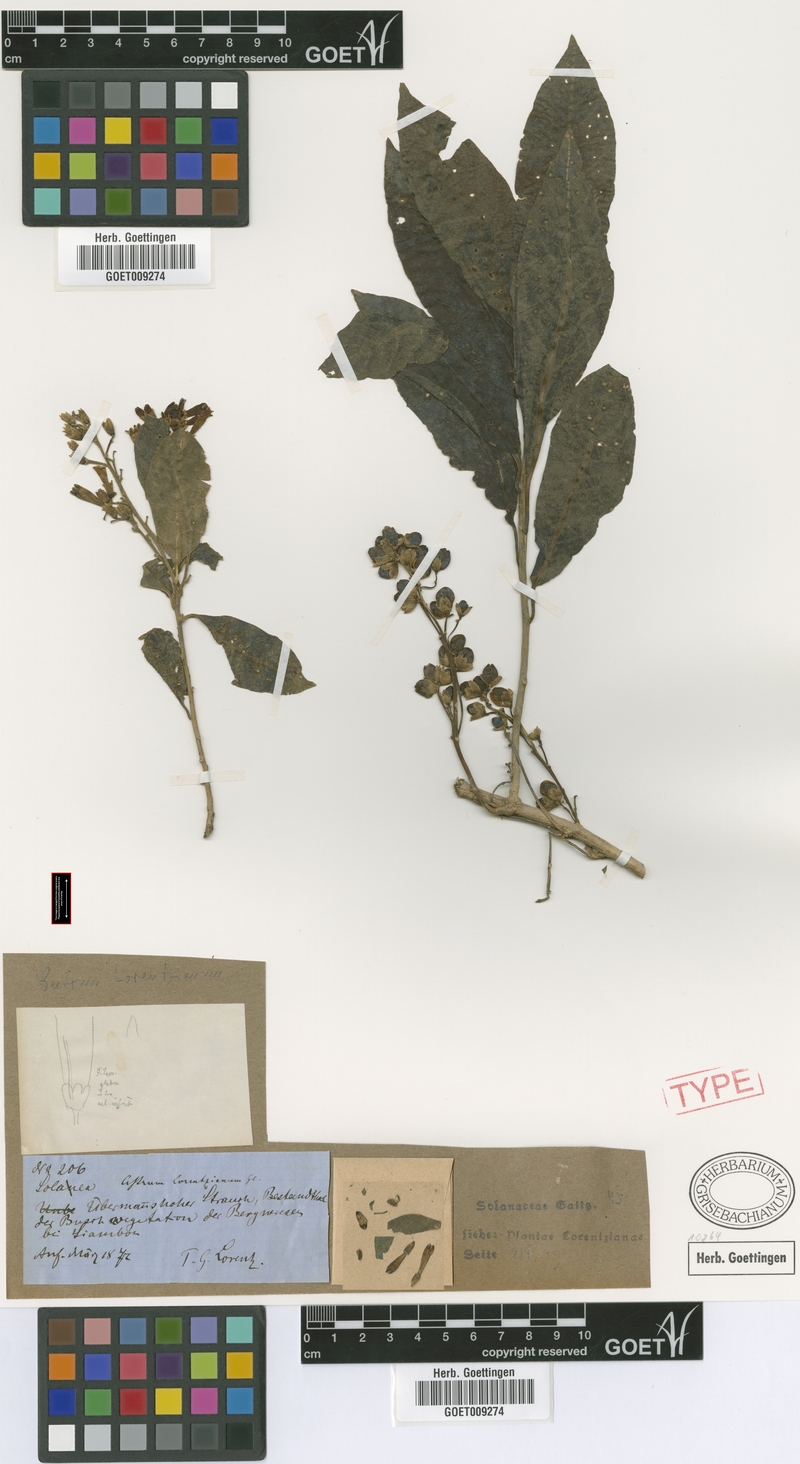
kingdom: Plantae
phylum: Tracheophyta
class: Magnoliopsida
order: Solanales
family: Solanaceae
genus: Cestrum
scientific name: Cestrum lorentzianum
